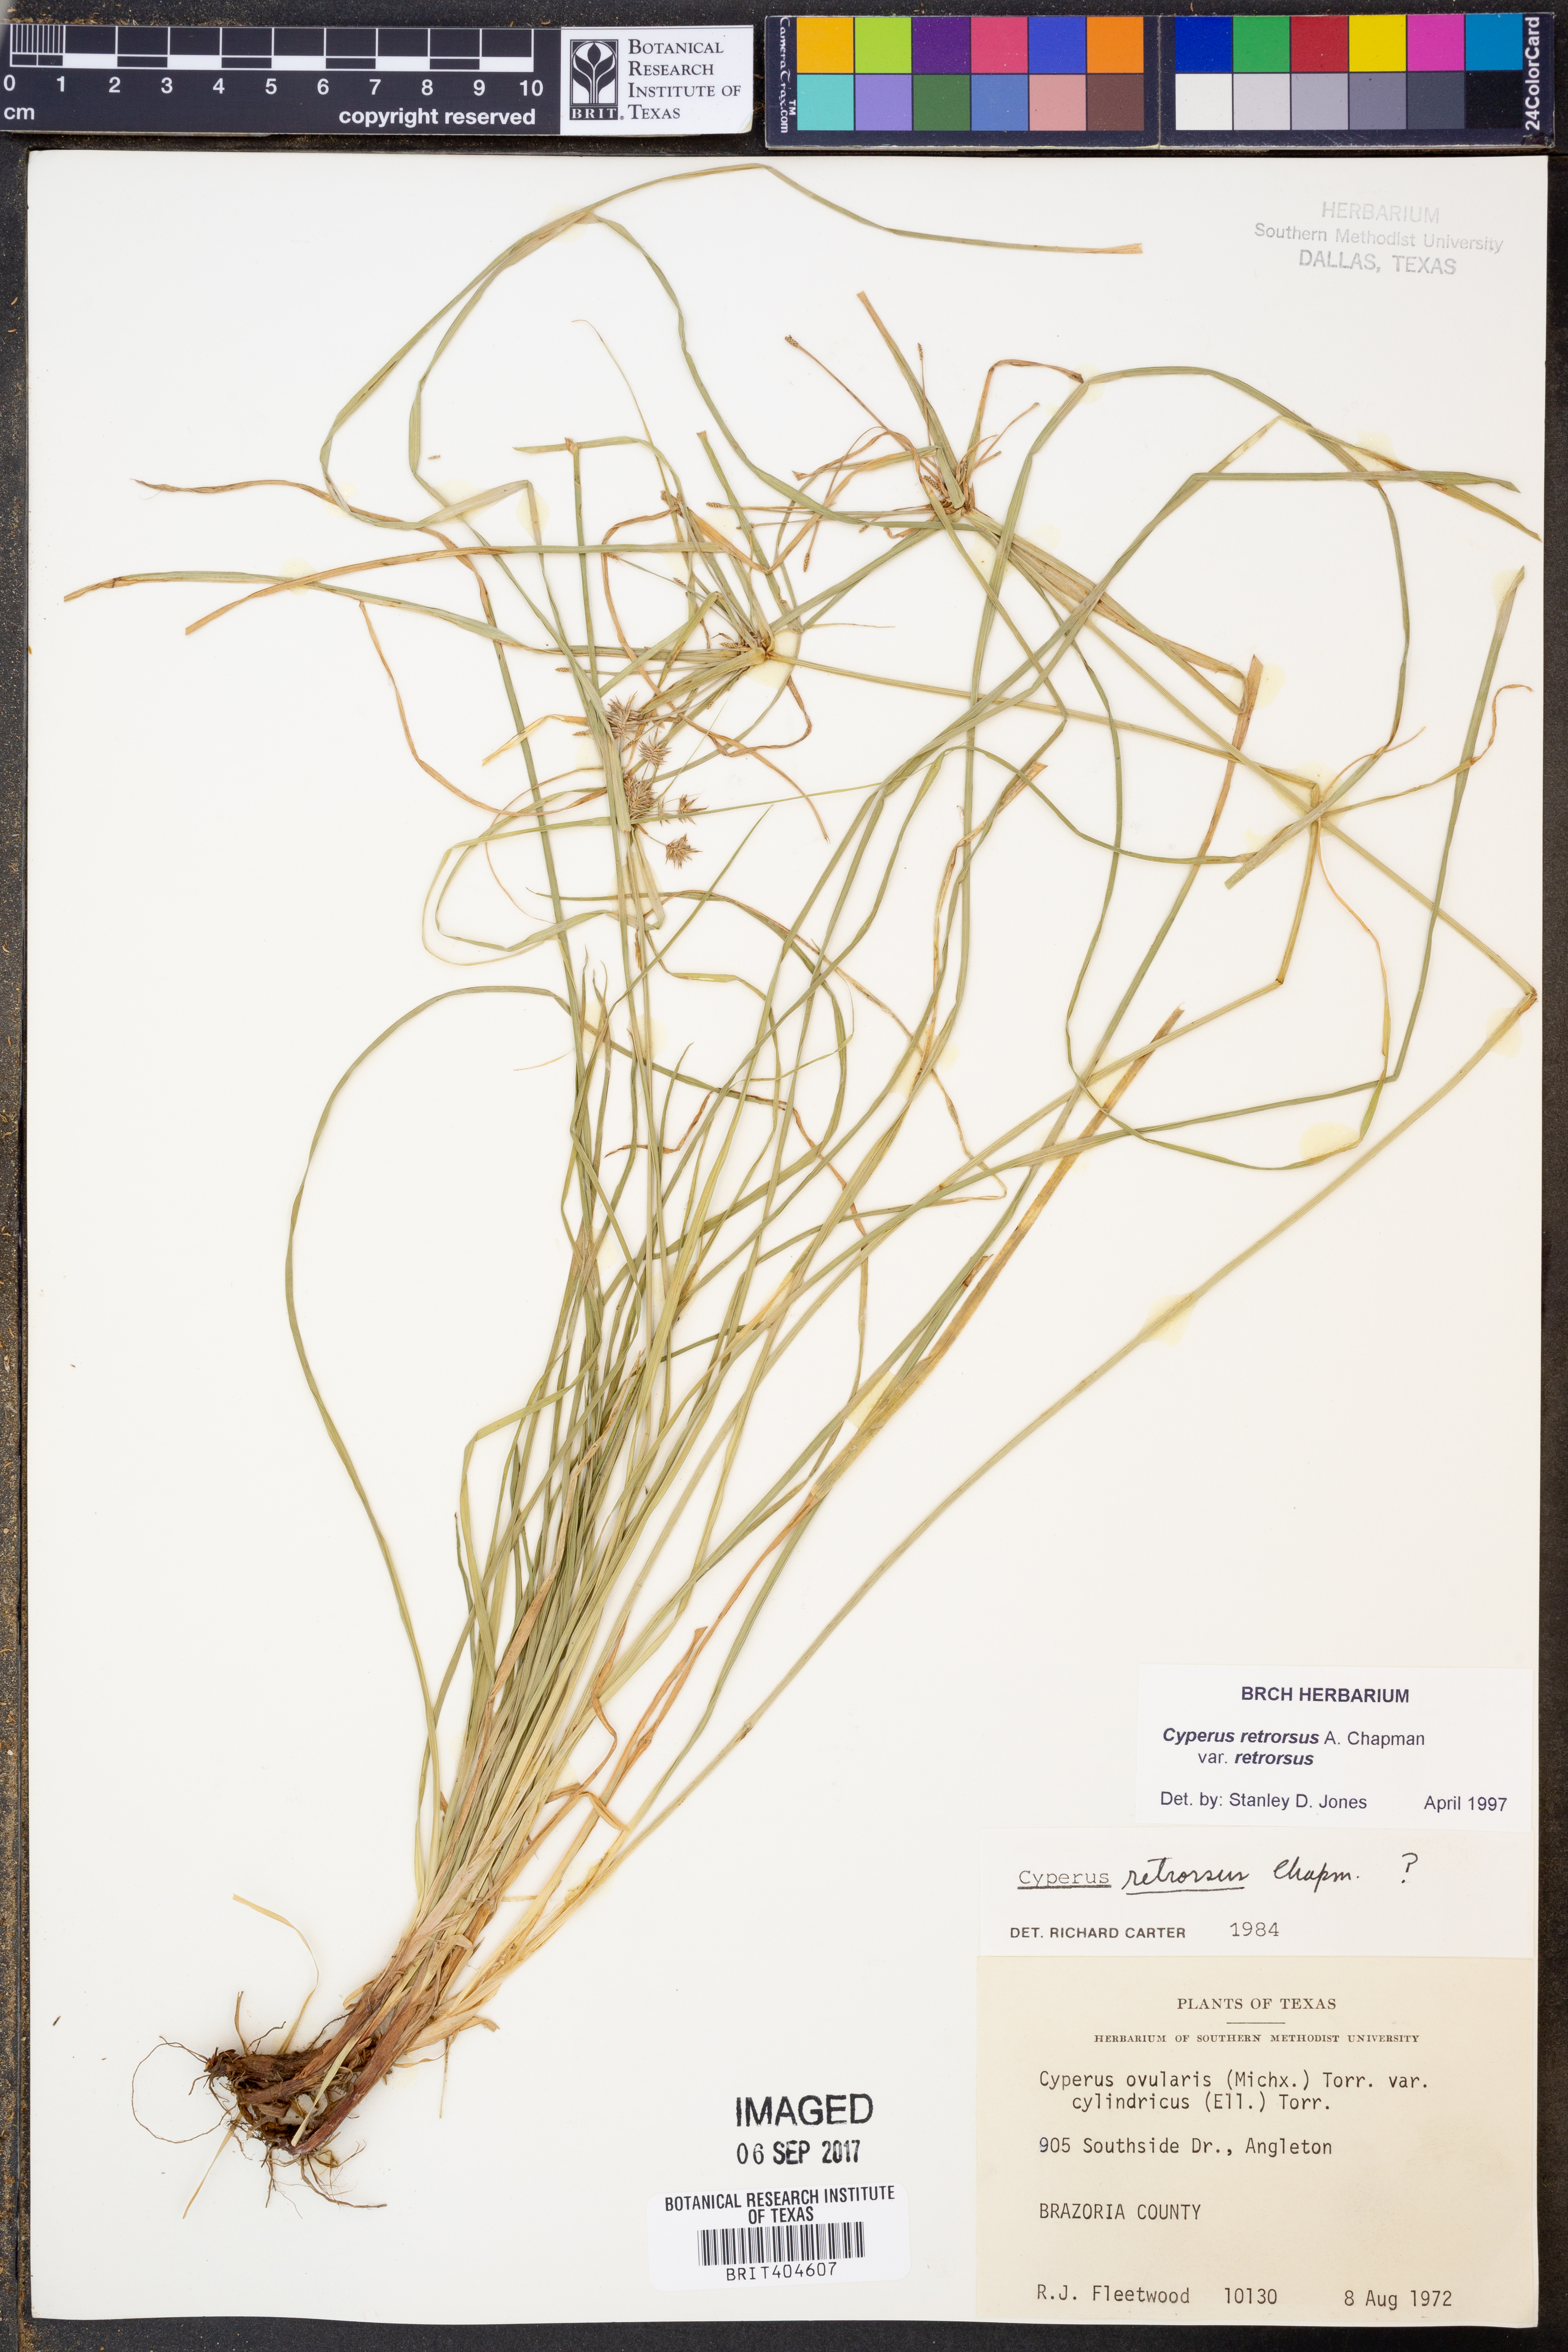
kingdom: Plantae
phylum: Tracheophyta
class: Liliopsida
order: Poales
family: Cyperaceae
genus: Cyperus
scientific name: Cyperus retrorsus
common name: Pinebarren flat sedge
